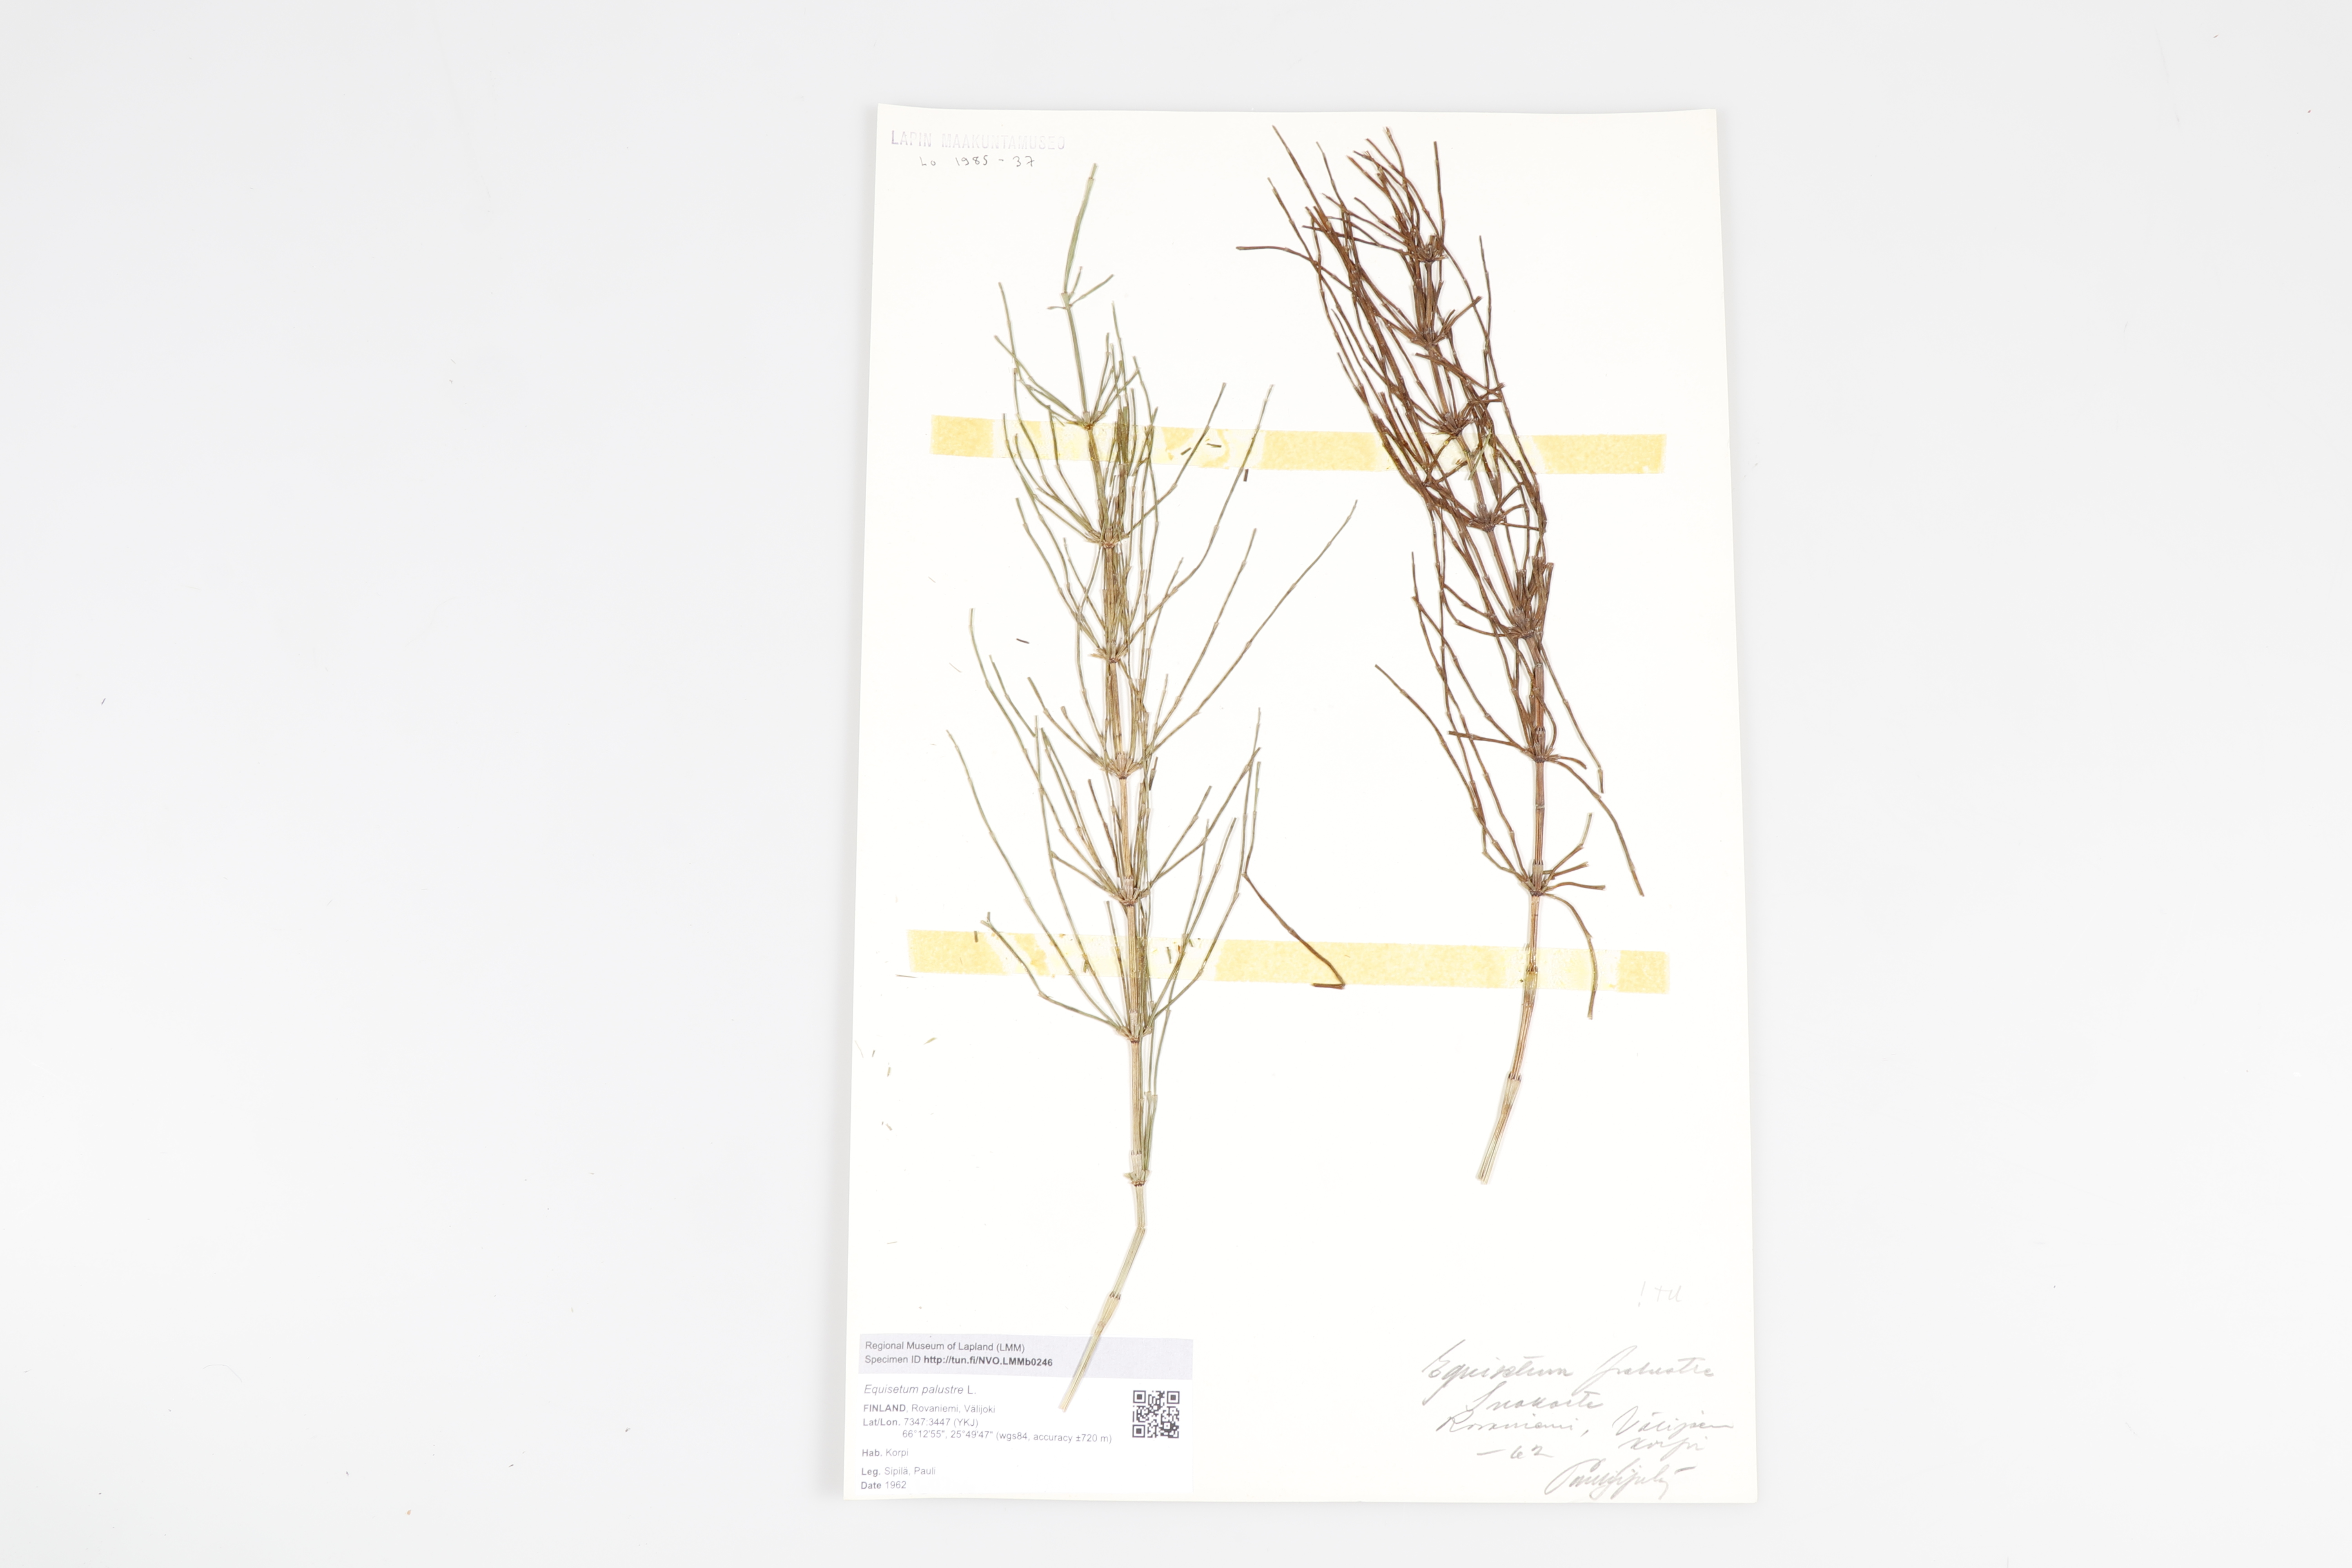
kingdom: Plantae
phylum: Tracheophyta
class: Polypodiopsida
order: Equisetales
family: Equisetaceae
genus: Equisetum
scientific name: Equisetum palustre
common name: Marsh horsetail
